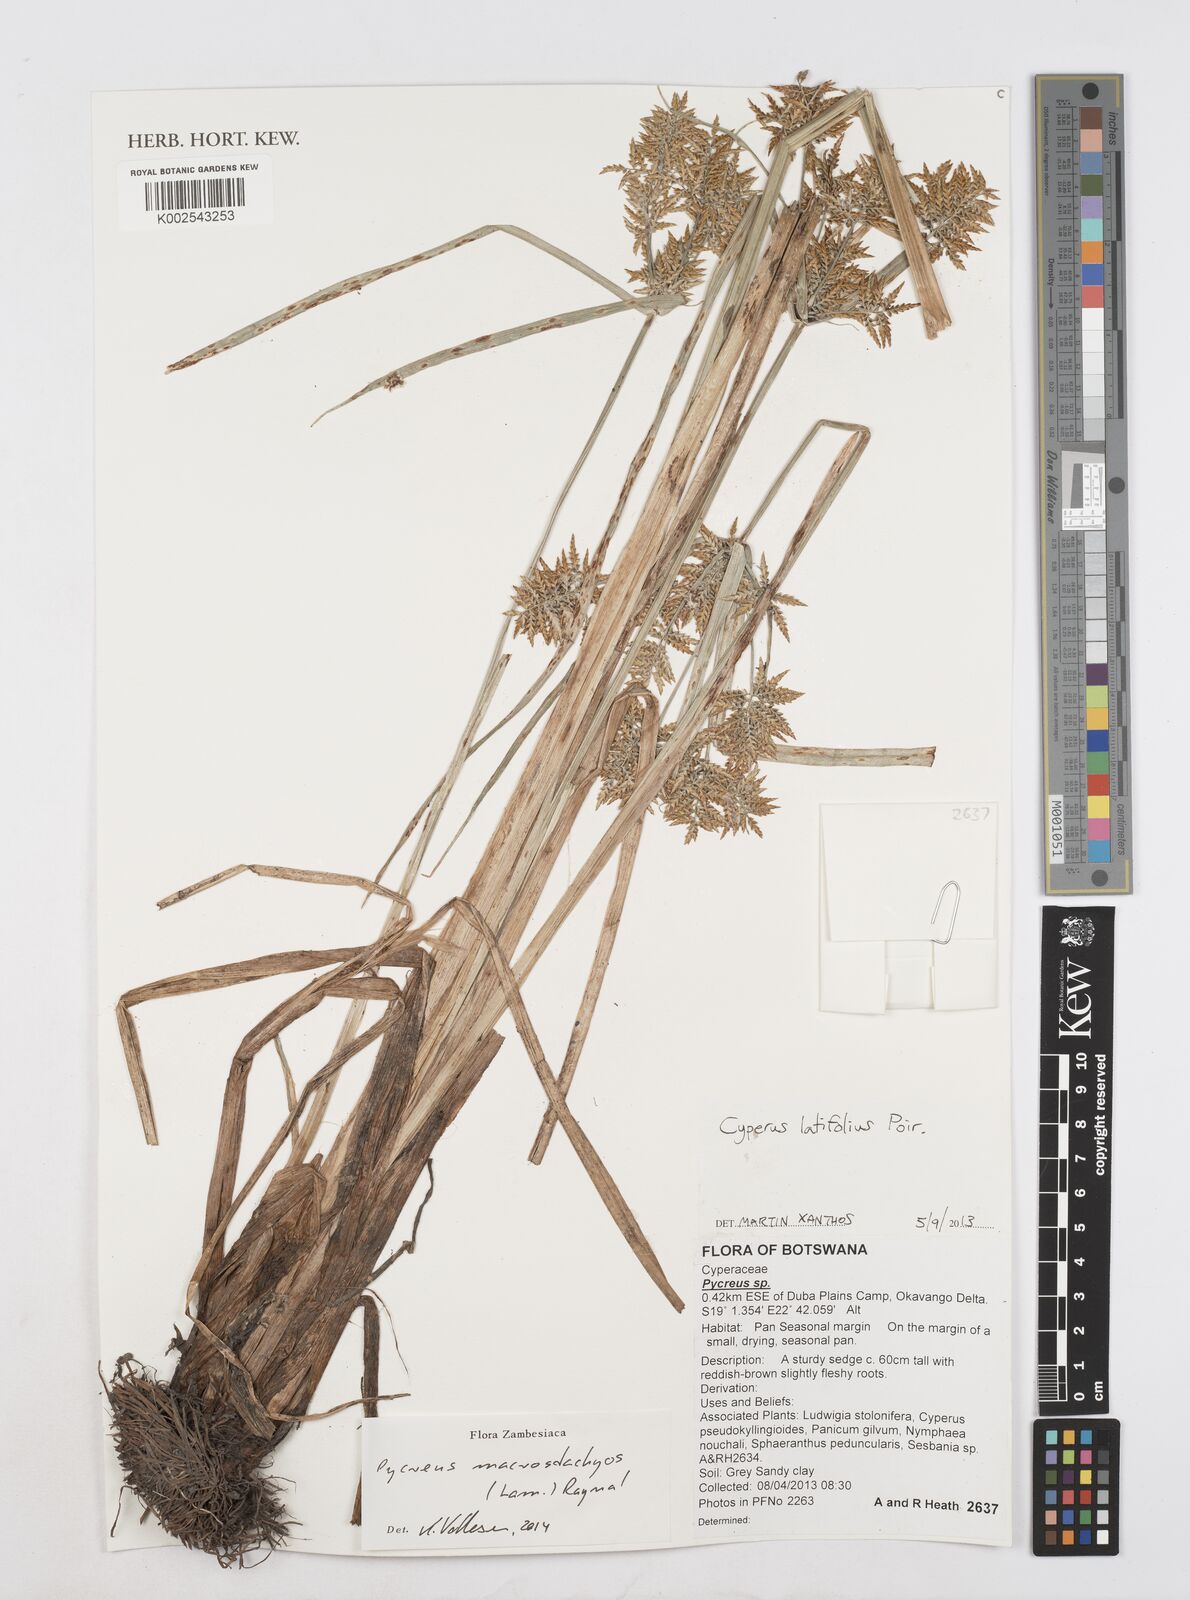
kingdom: Plantae
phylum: Tracheophyta
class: Liliopsida
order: Poales
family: Cyperaceae
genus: Cyperus
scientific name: Cyperus macrostachyos
